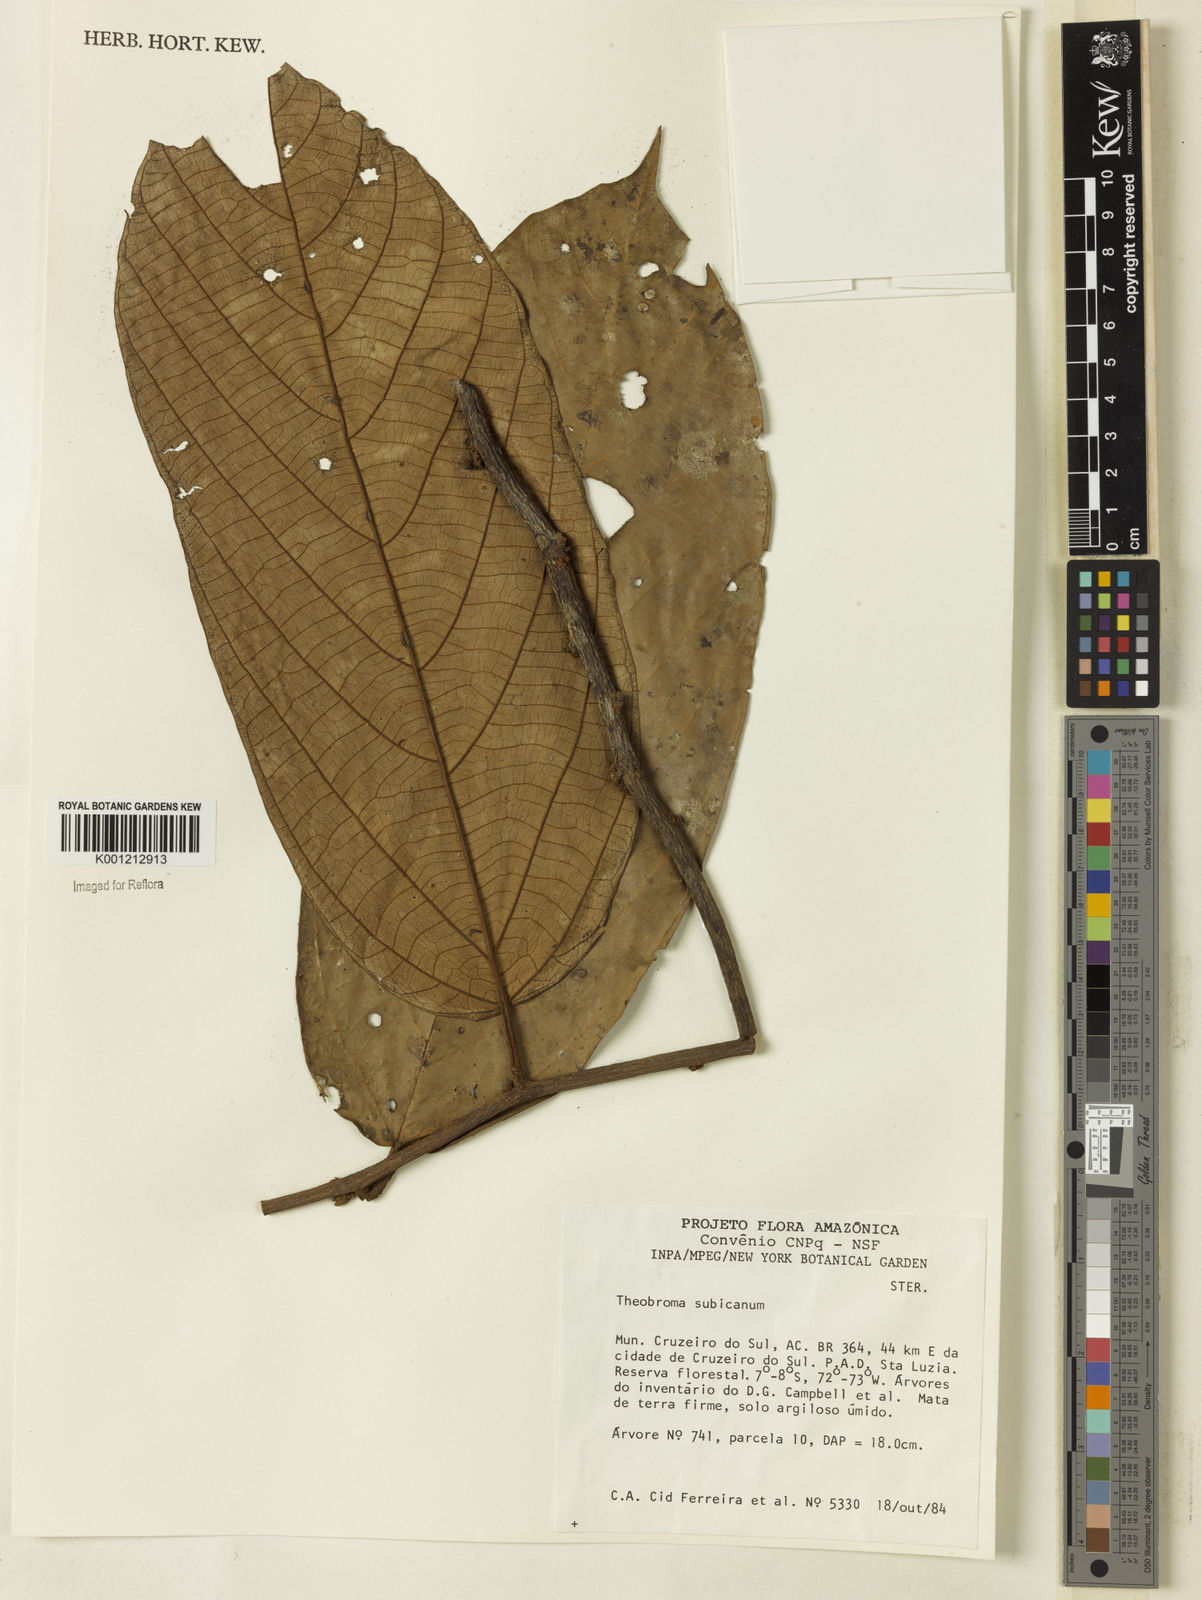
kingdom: Plantae
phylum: Tracheophyta
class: Magnoliopsida
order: Malvales
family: Malvaceae
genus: Theobroma
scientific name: Theobroma subincanum
